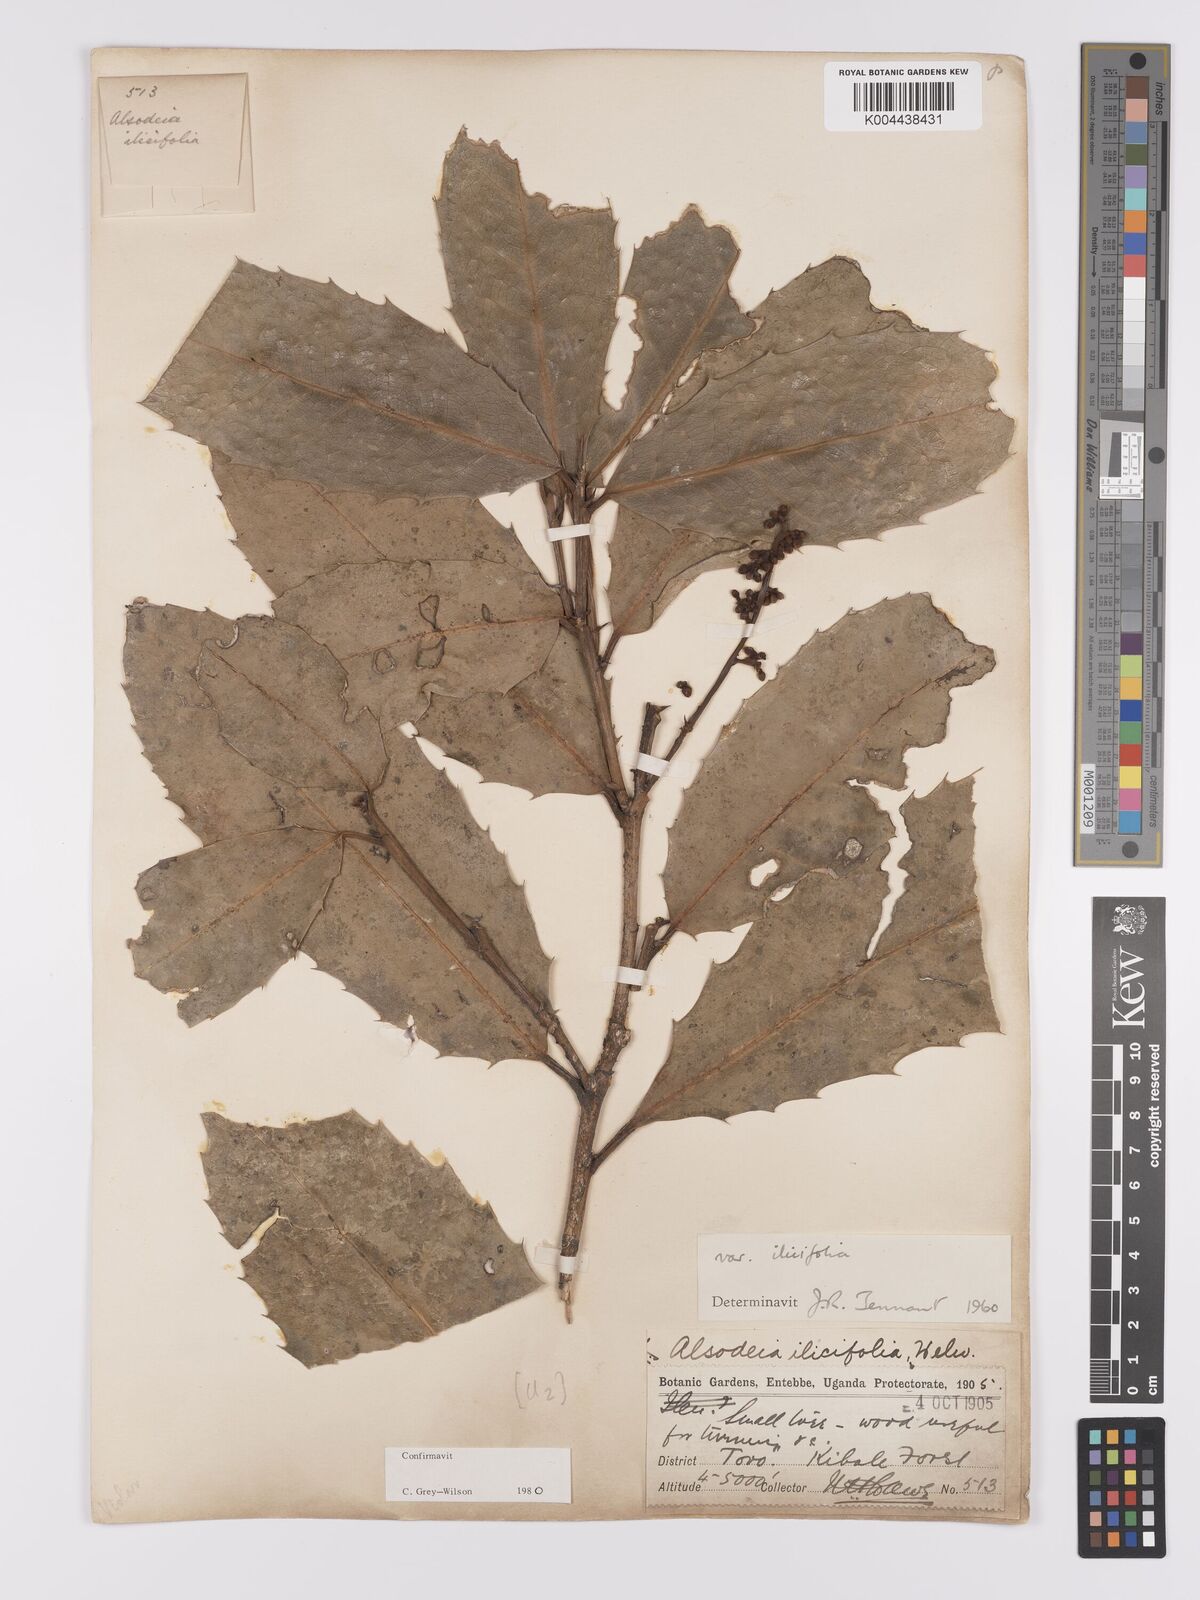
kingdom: Plantae
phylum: Tracheophyta
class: Magnoliopsida
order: Malpighiales
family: Violaceae
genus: Rinorea
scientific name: Rinorea ilicifolia
